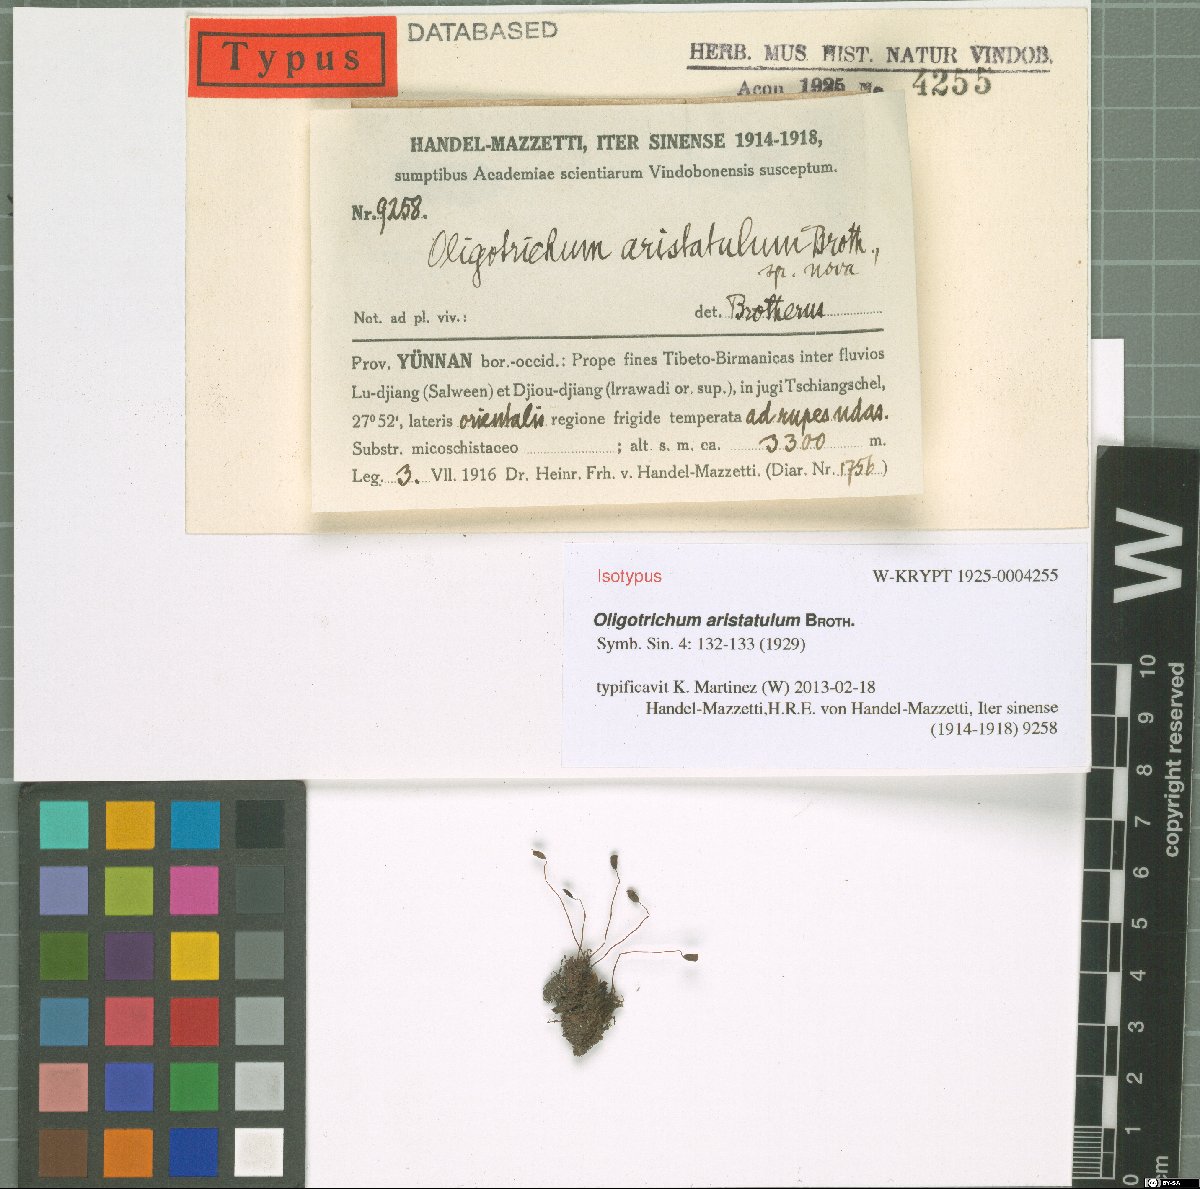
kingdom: Plantae
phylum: Bryophyta
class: Polytrichopsida
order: Polytrichales
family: Polytrichaceae
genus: Oligotrichum
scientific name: Oligotrichum aristatulum
